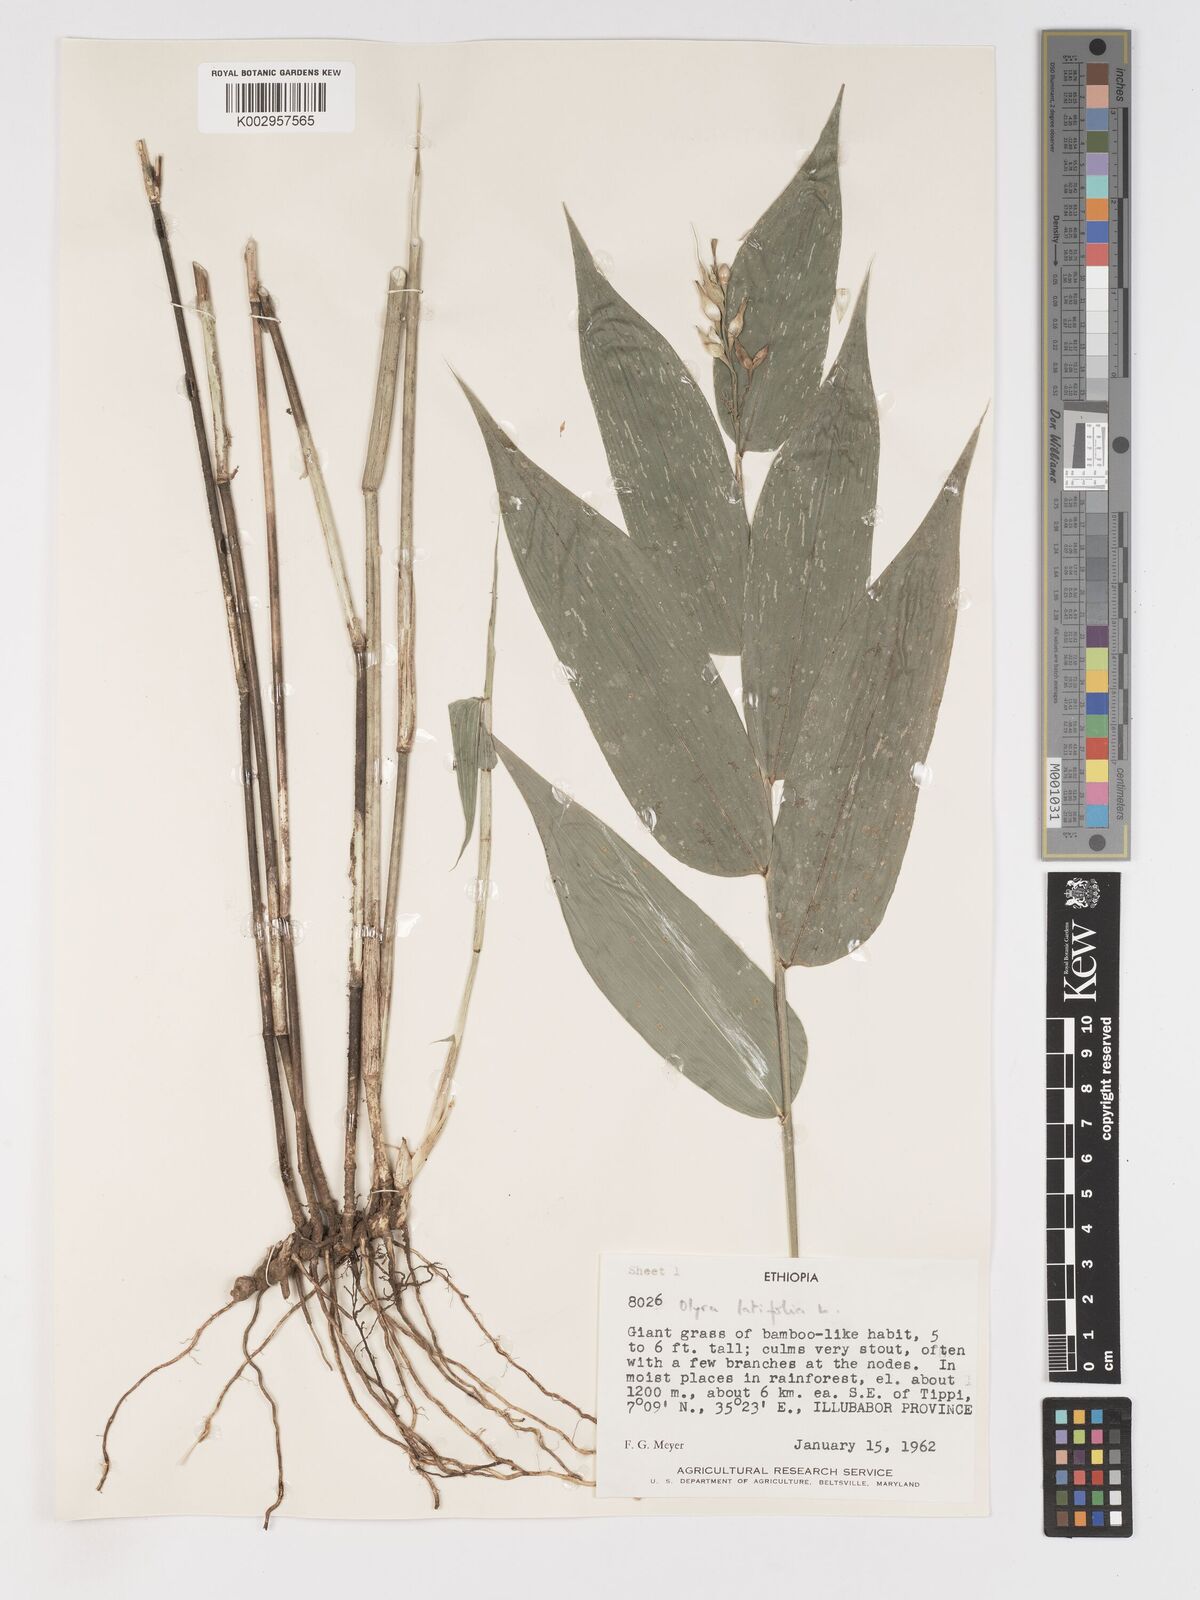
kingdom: Plantae
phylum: Tracheophyta
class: Liliopsida
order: Poales
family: Poaceae
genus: Olyra
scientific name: Olyra latifolia
